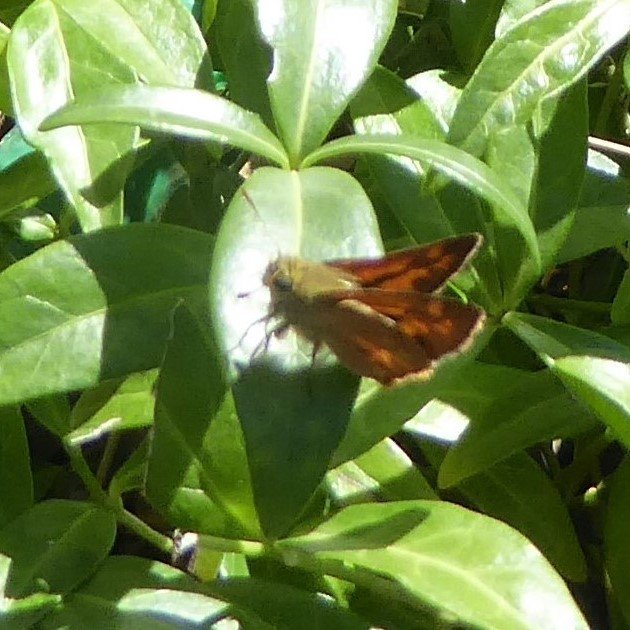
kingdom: Animalia
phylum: Arthropoda
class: Insecta
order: Lepidoptera
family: Hesperiidae
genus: Ochlodes
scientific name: Ochlodes sylvanoides
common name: Woodland Skipper
